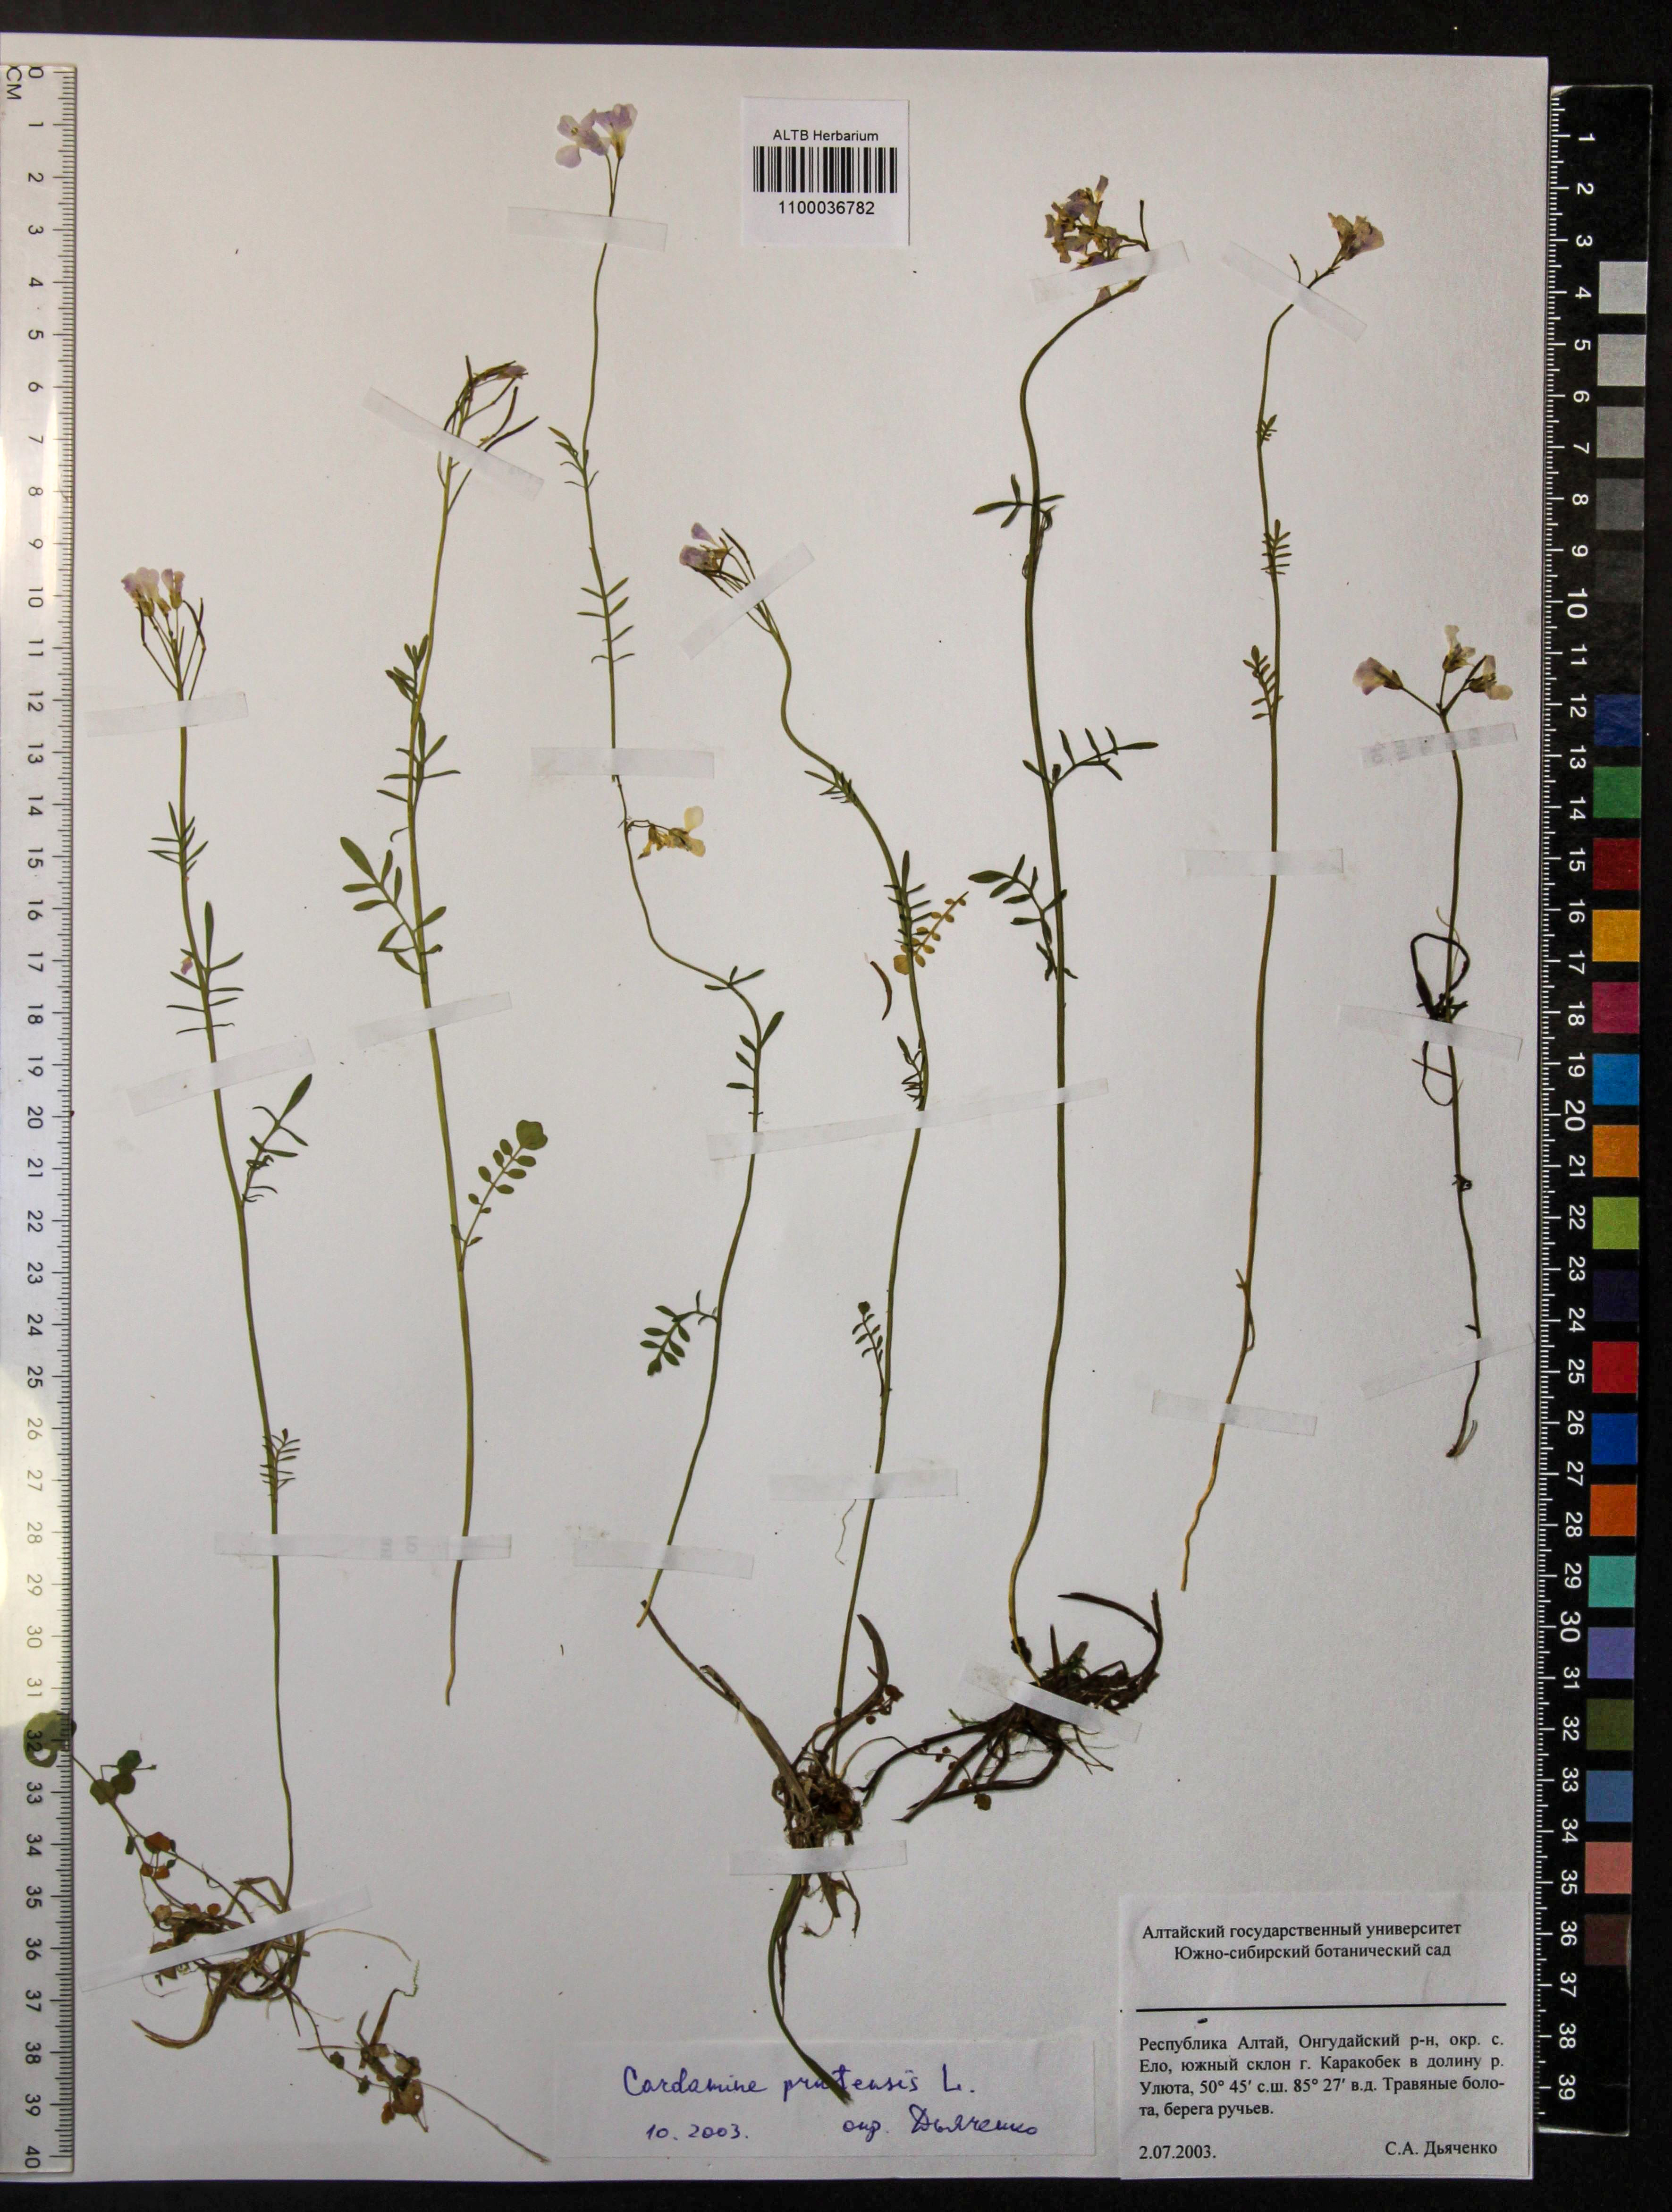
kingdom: Plantae
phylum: Tracheophyta
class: Magnoliopsida
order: Brassicales
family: Brassicaceae
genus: Cardamine
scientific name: Cardamine pratensis
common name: Cuckoo flower
